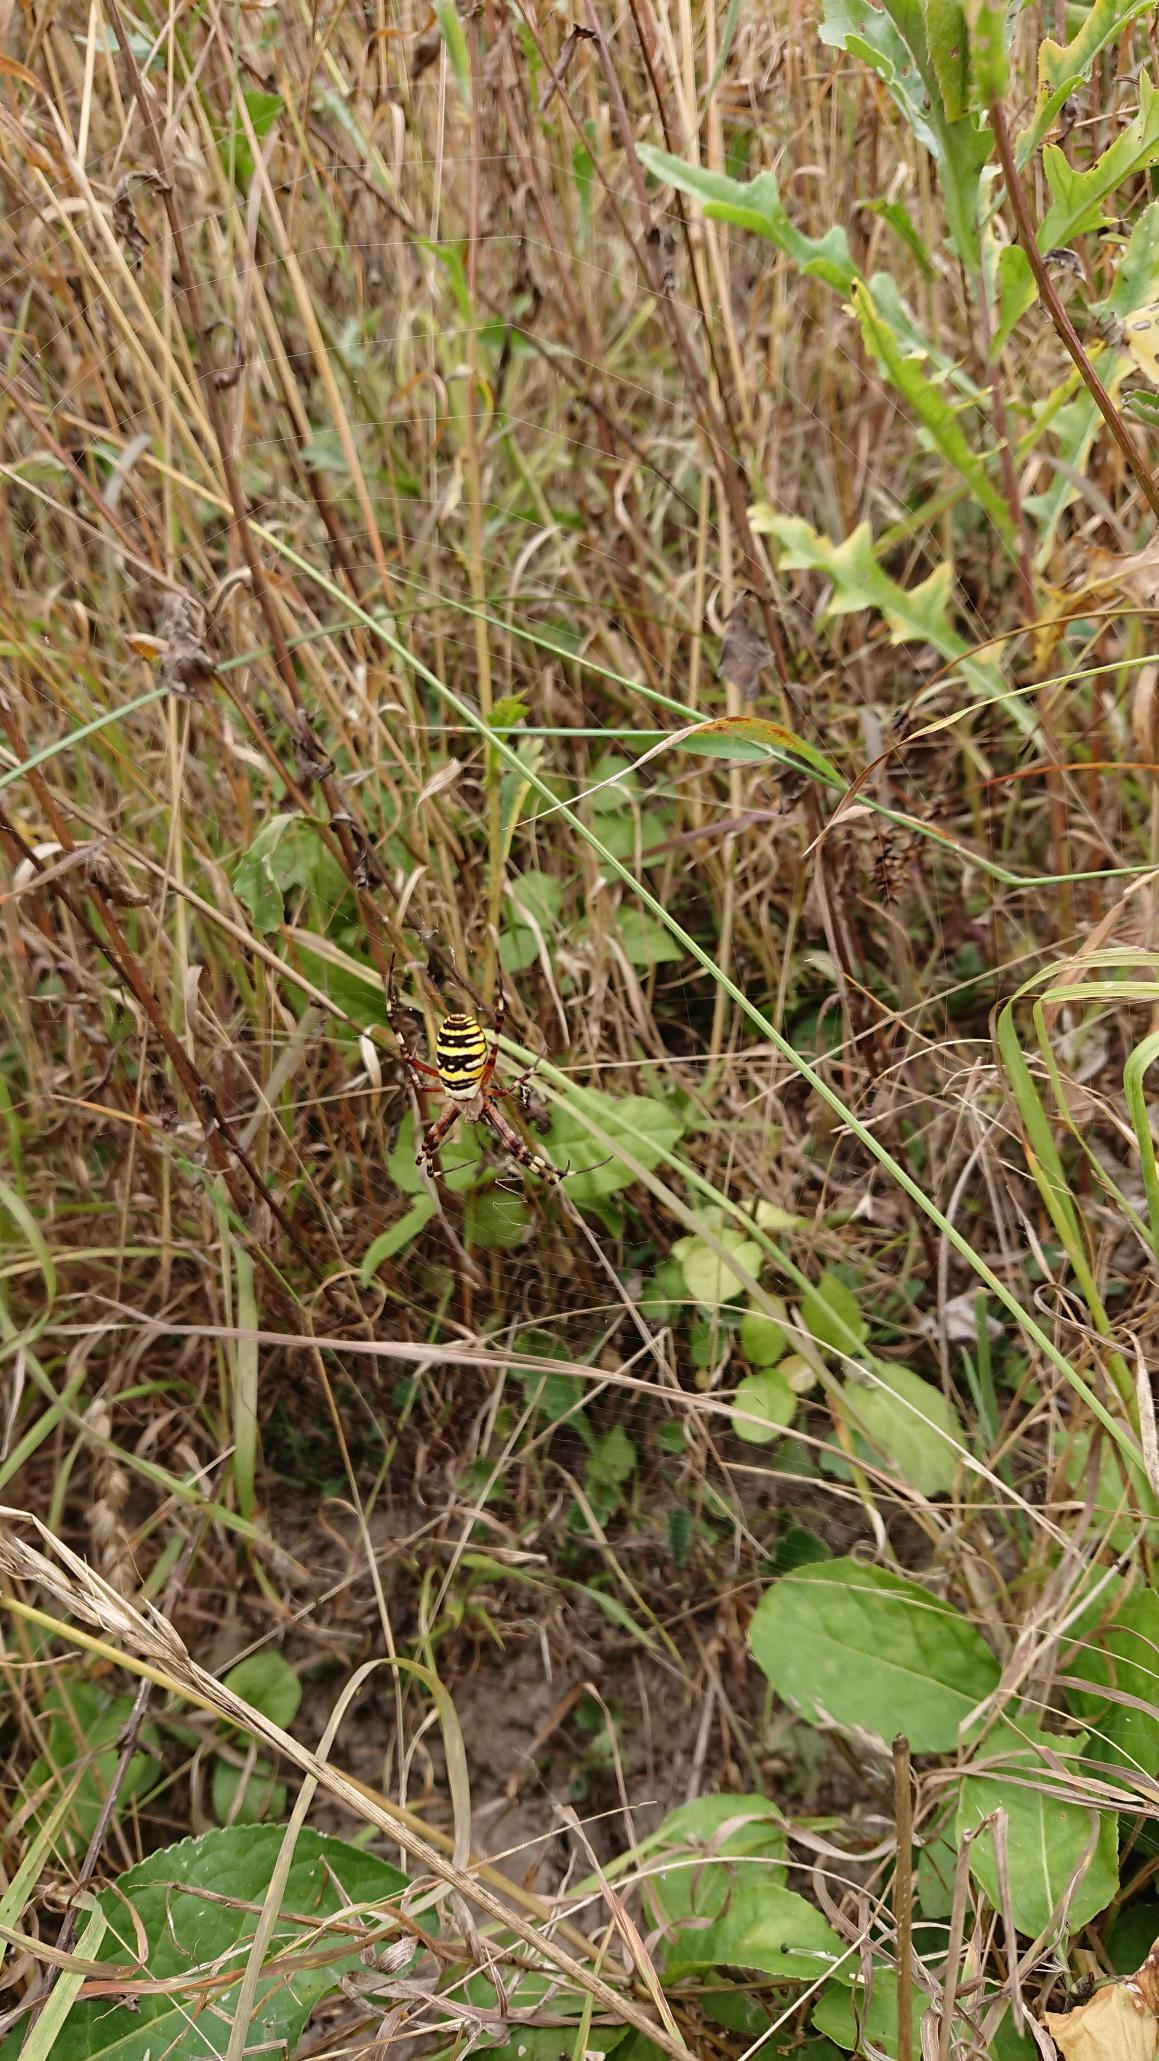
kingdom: Animalia
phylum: Arthropoda
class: Arachnida
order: Araneae
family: Araneidae
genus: Argiope
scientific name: Argiope bruennichi
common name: Hvepseedderkop
